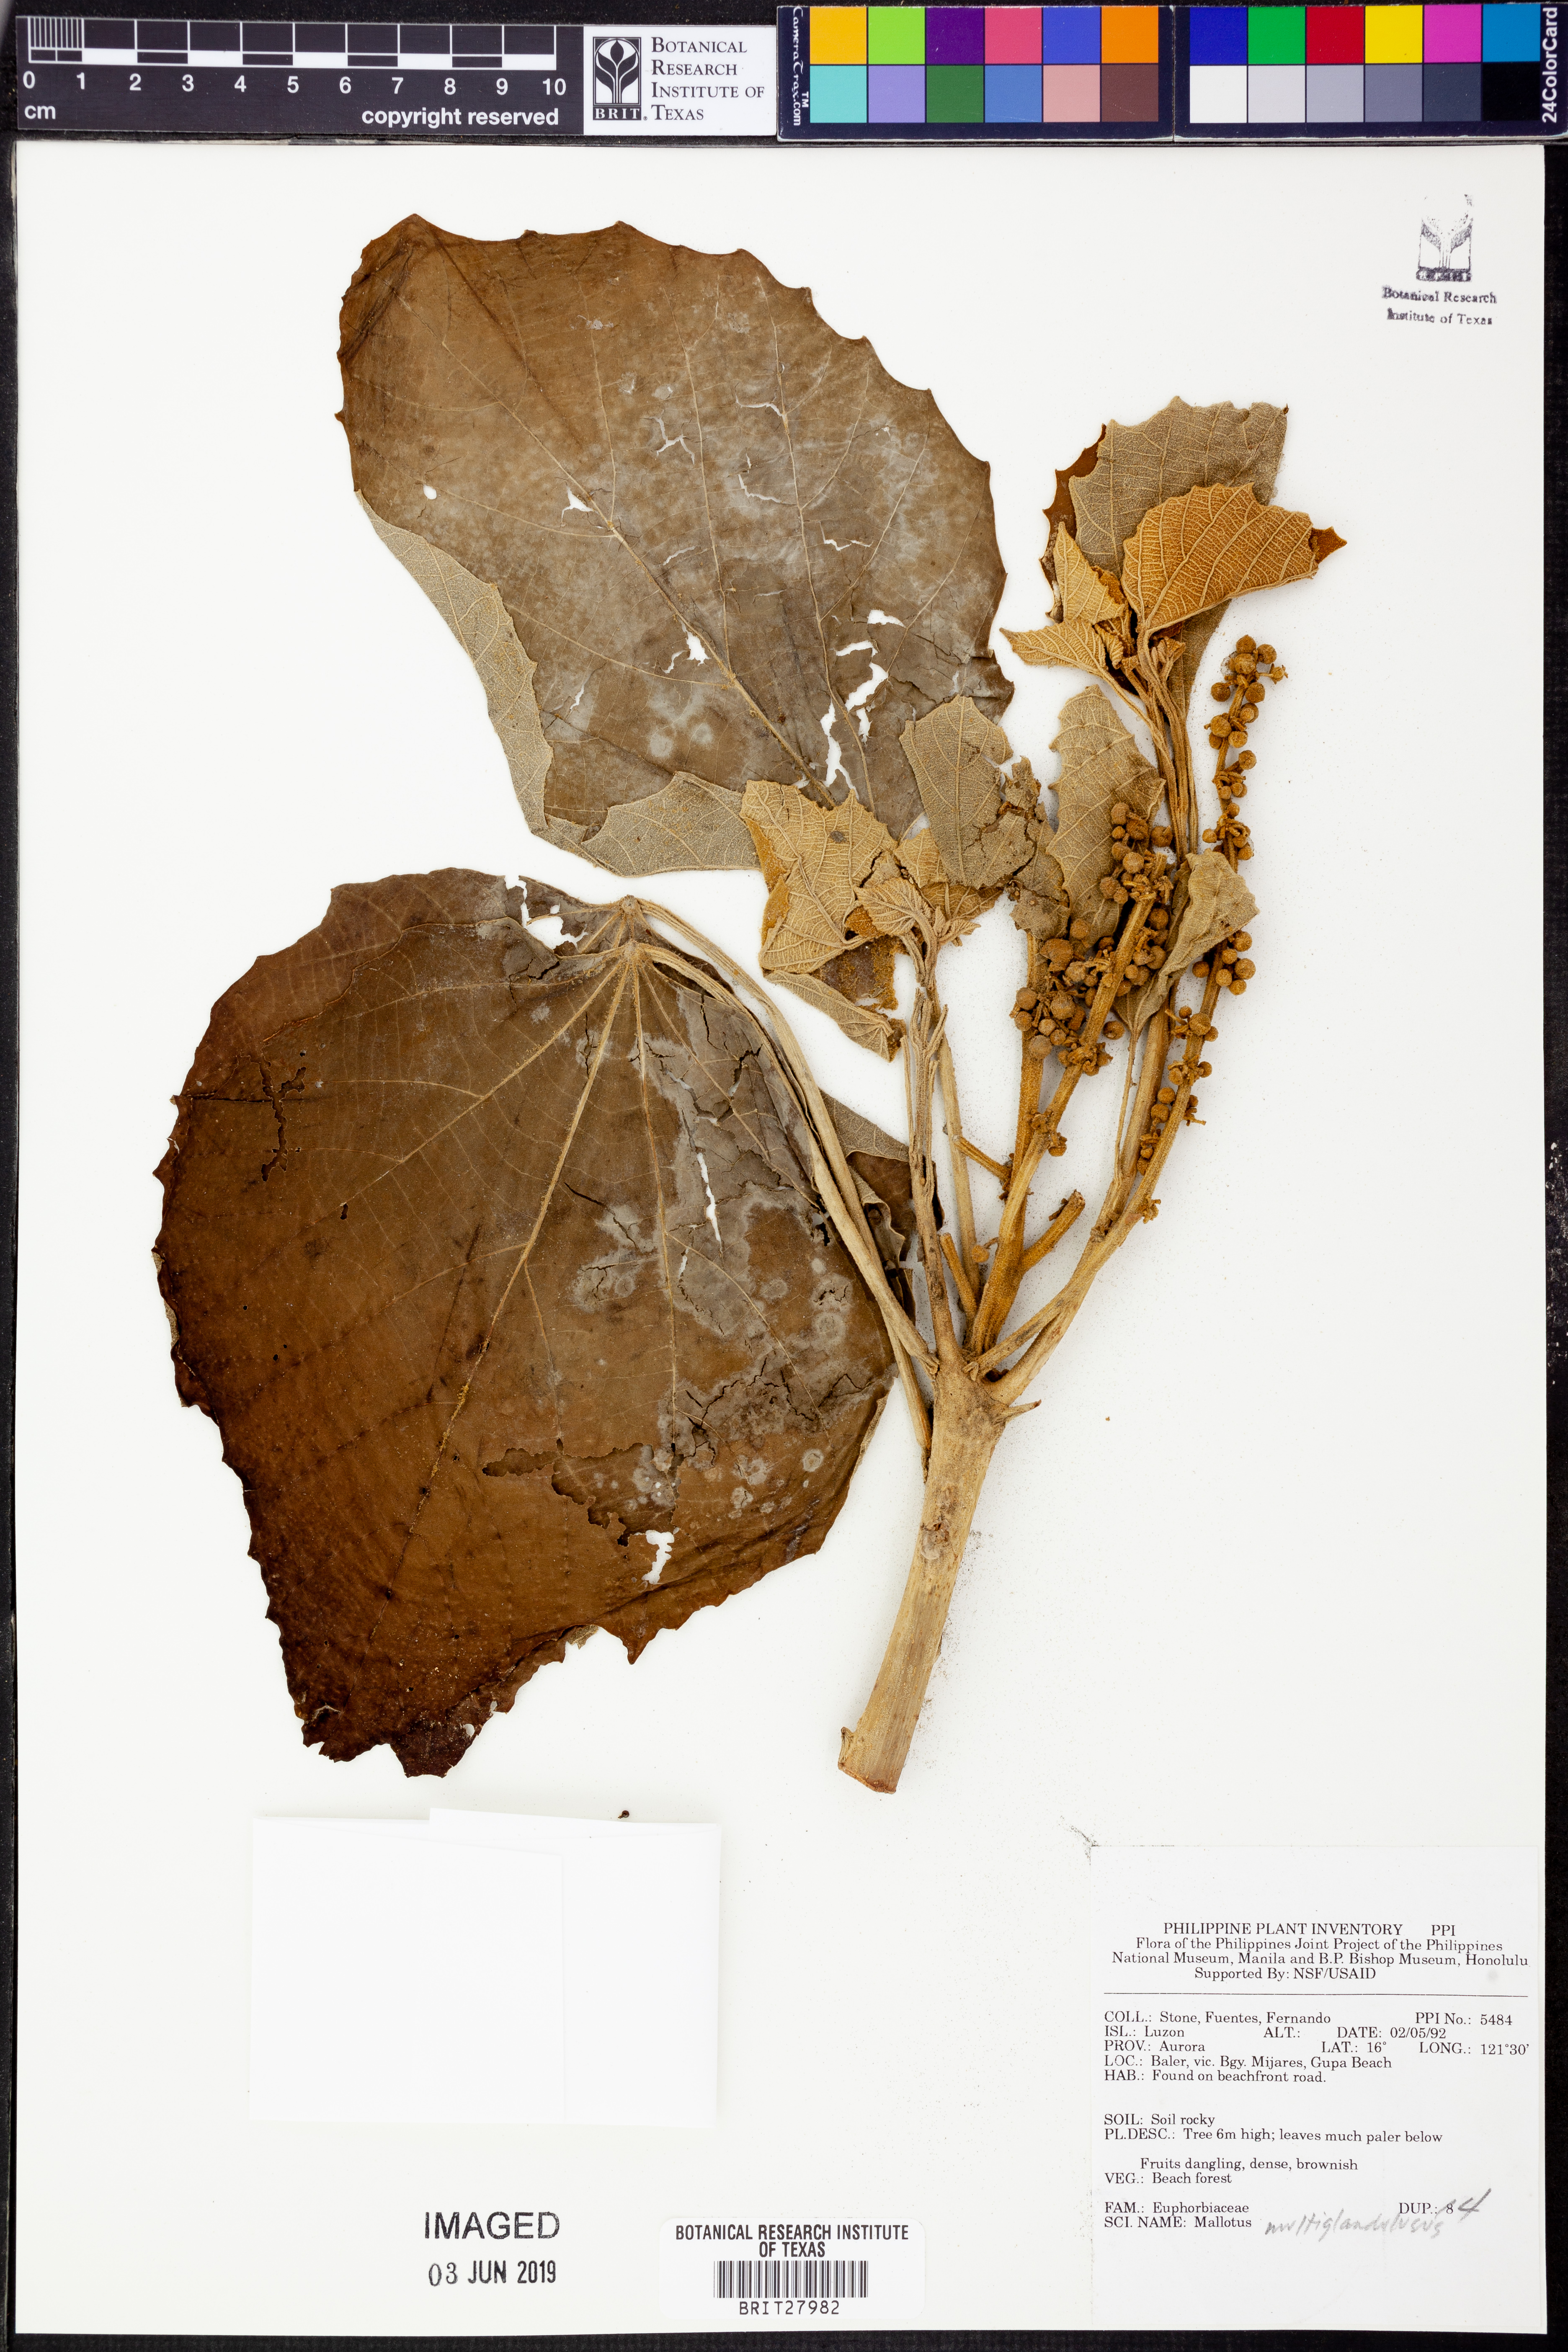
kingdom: Plantae
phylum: Tracheophyta
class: Magnoliopsida
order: Malpighiales
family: Euphorbiaceae
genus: Melanolepis
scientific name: Melanolepis multiglandulosa
